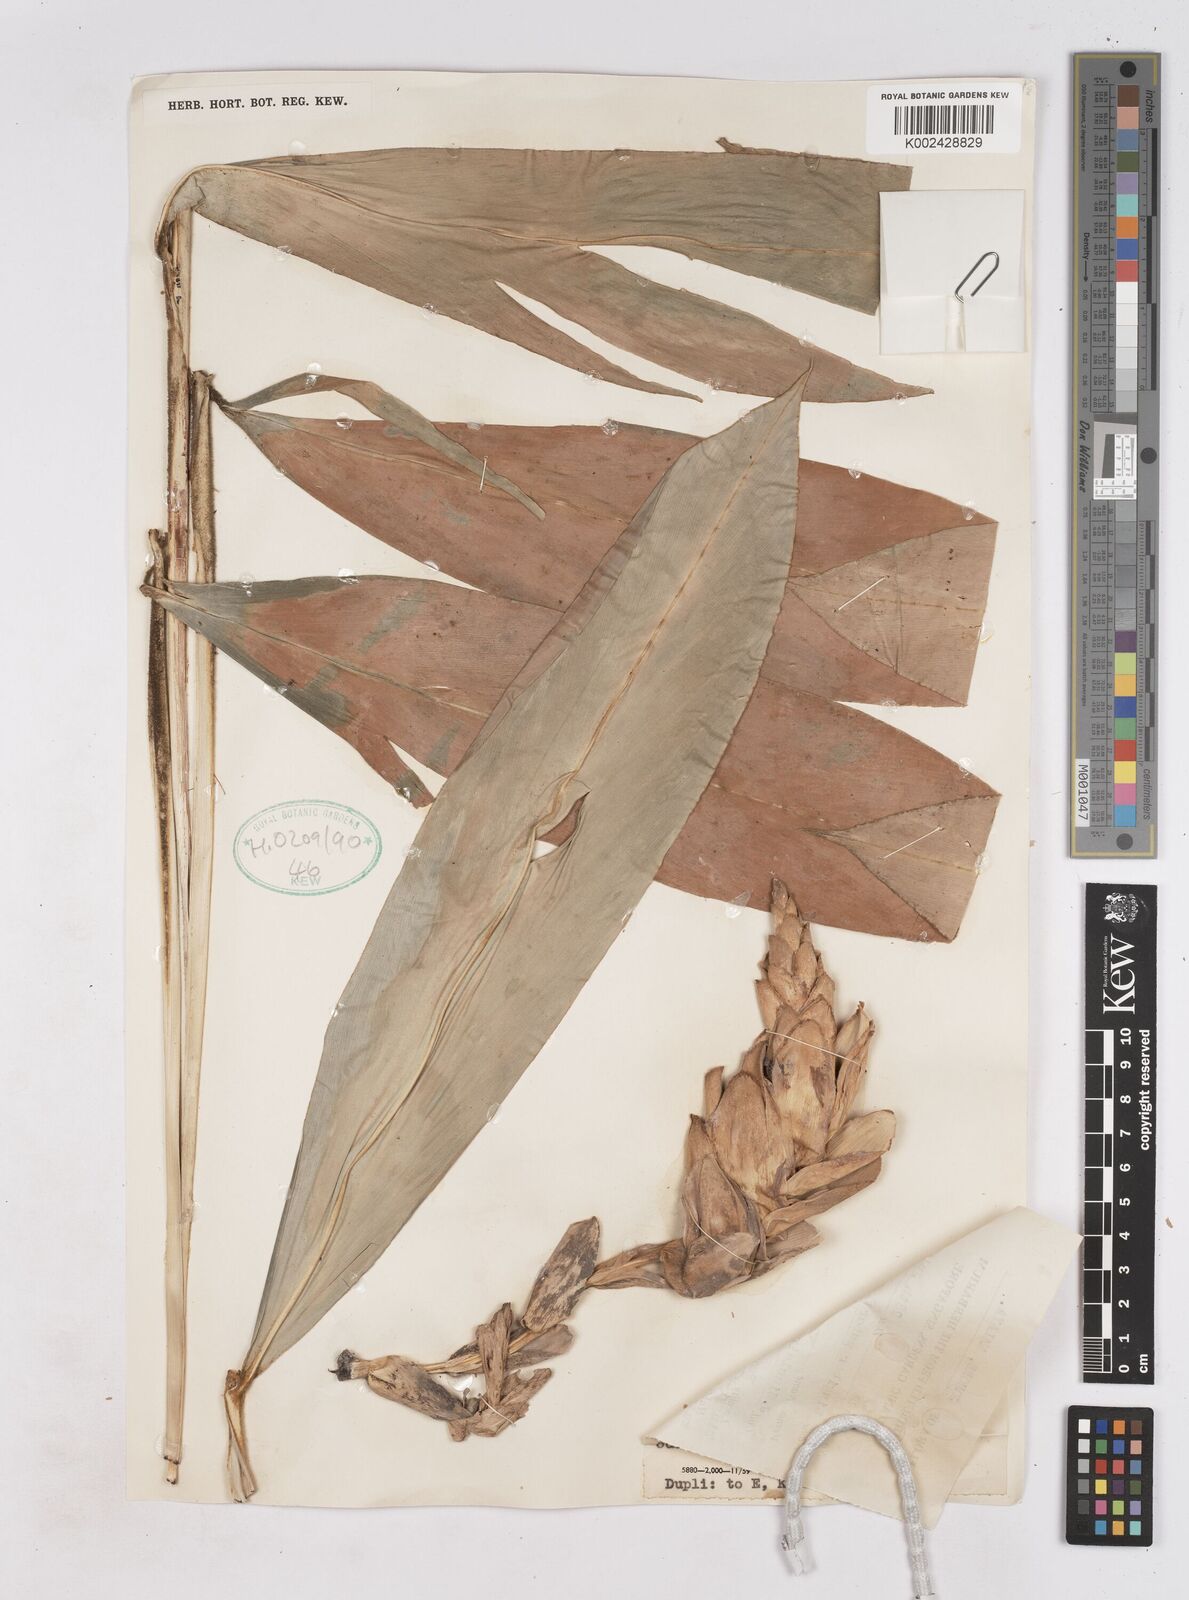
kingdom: Plantae
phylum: Tracheophyta
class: Liliopsida
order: Zingiberales
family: Zingiberaceae
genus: Zingiber
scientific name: Zingiber puberulum
